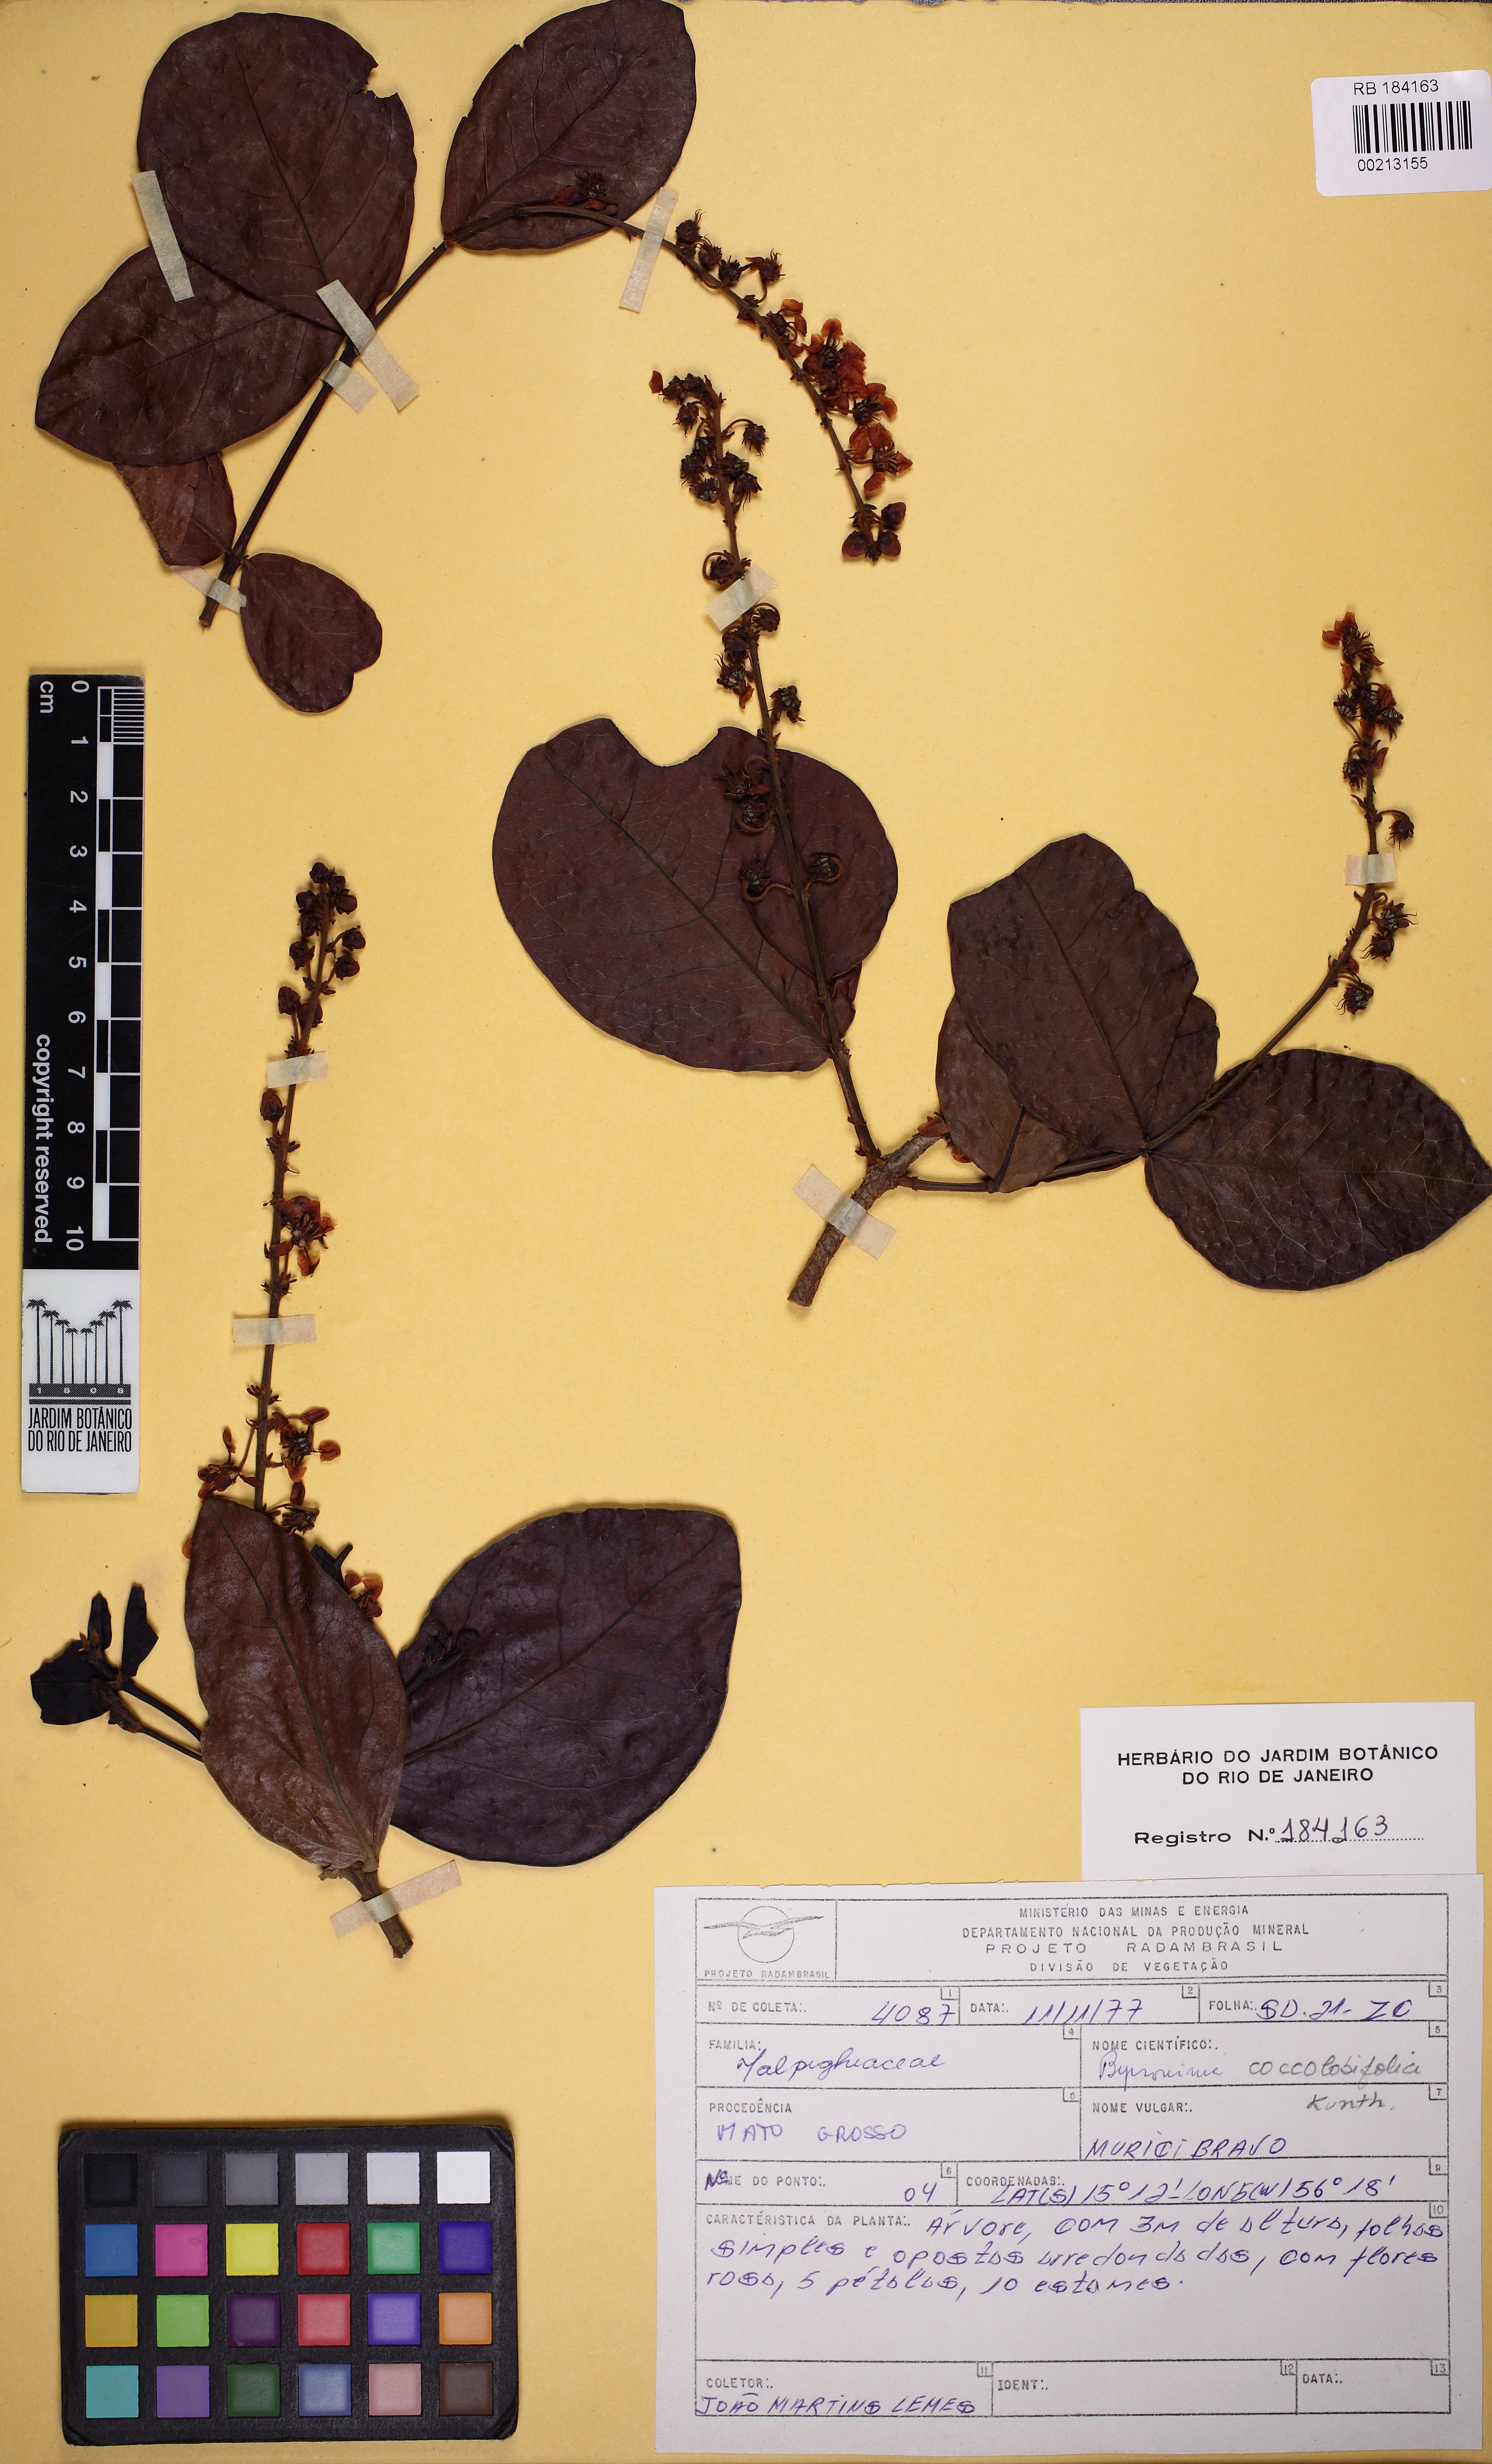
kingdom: Plantae
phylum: Tracheophyta
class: Magnoliopsida
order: Malpighiales
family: Malpighiaceae
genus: Byrsonima
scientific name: Byrsonima coccolobifolia
